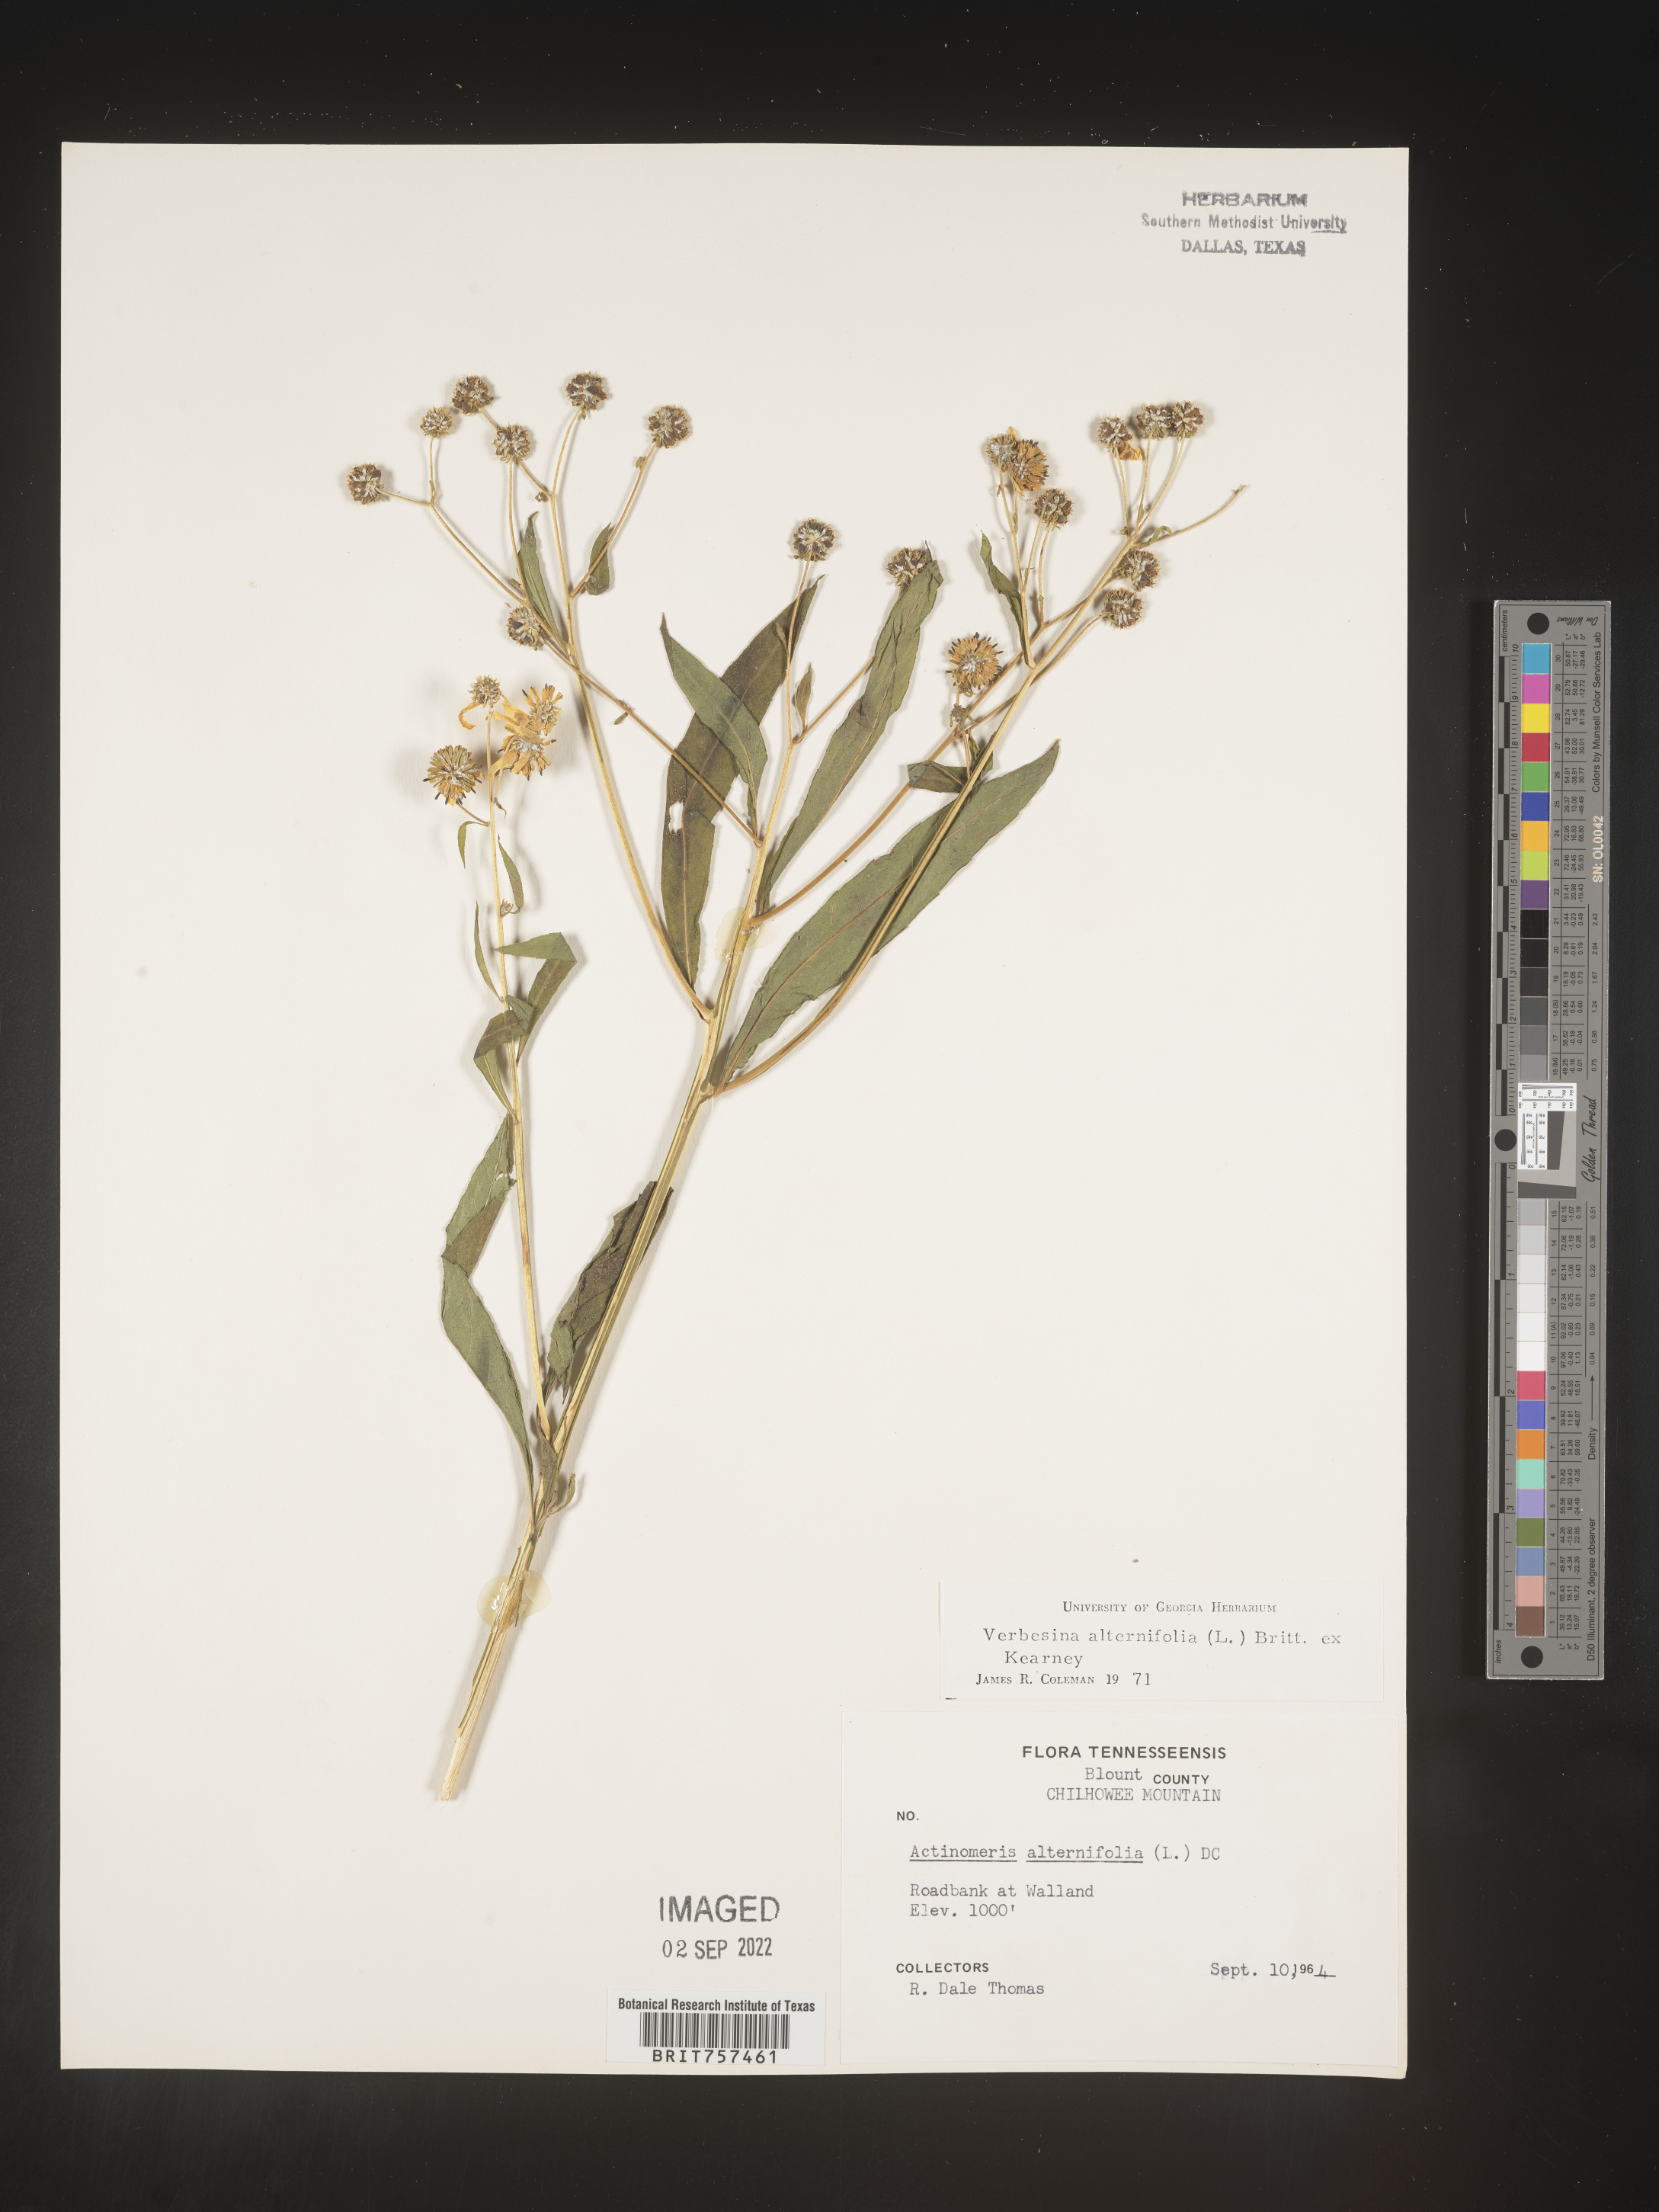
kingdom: Plantae
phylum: Tracheophyta
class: Magnoliopsida
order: Asterales
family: Asteraceae
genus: Verbesina
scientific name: Verbesina alternifolia
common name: Wingstem
